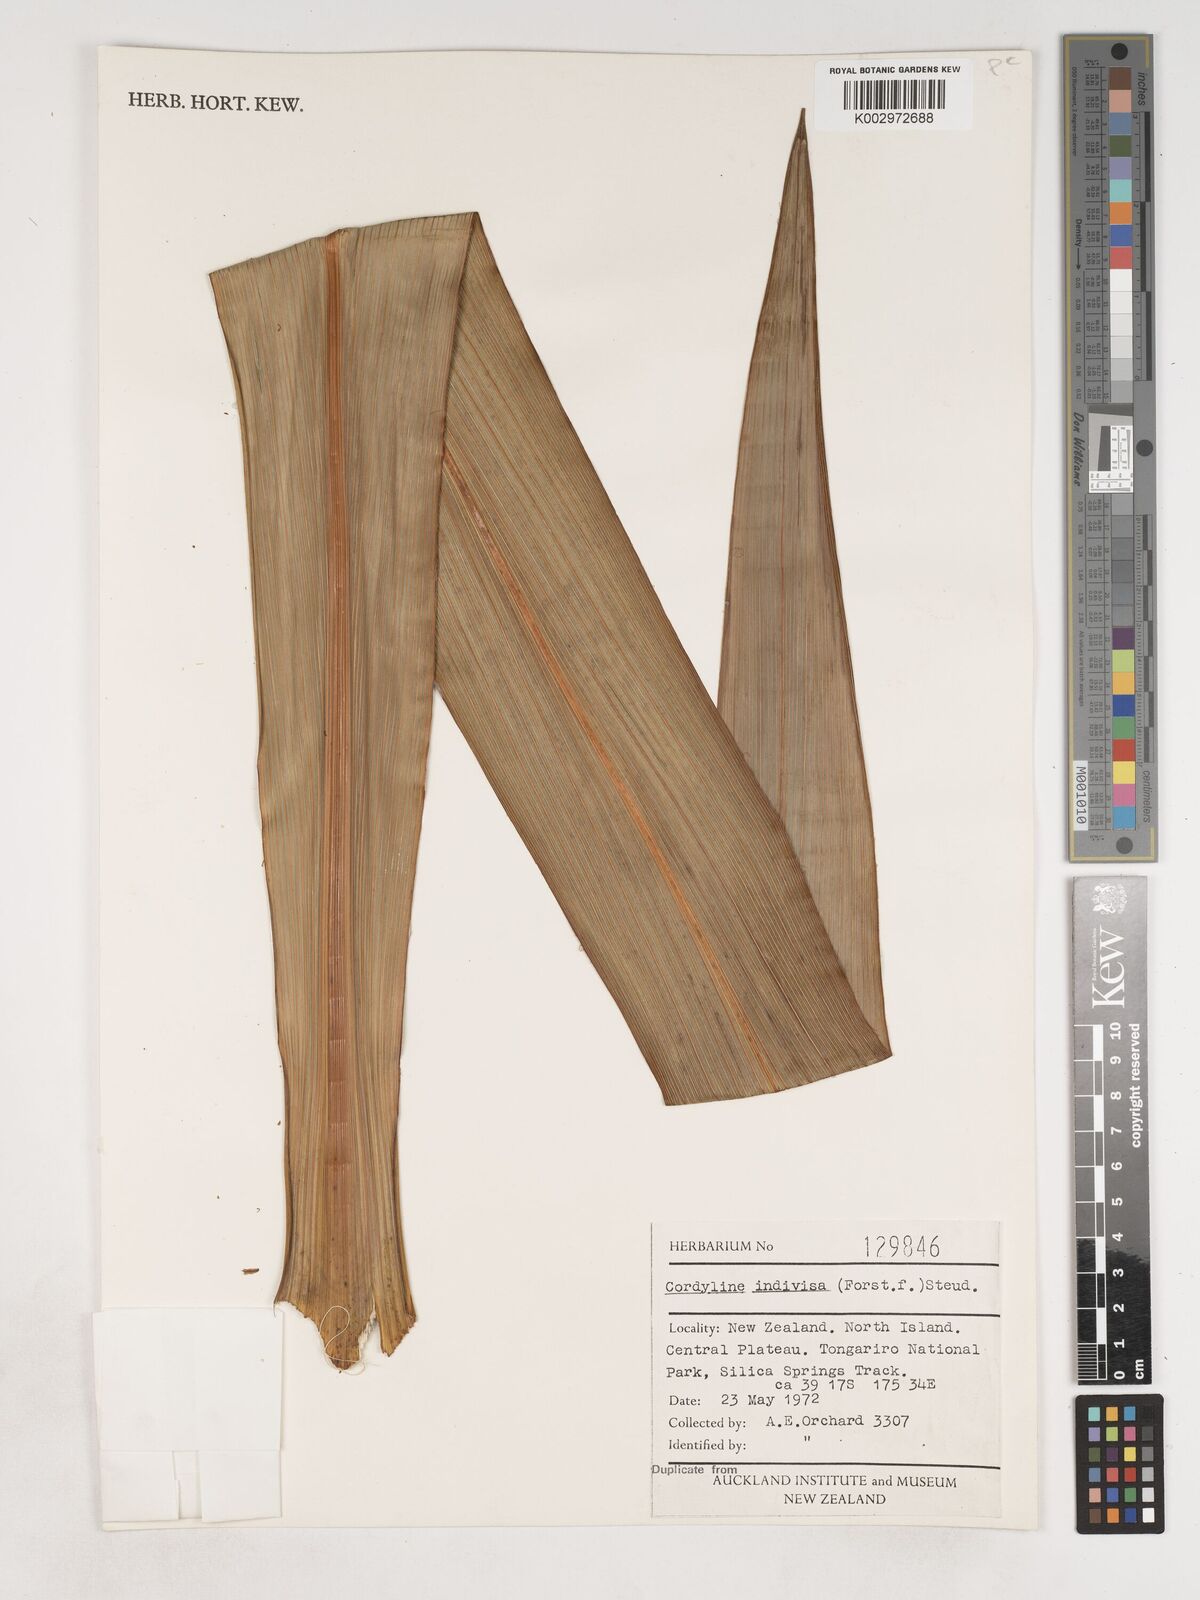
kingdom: Plantae
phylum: Tracheophyta
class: Liliopsida
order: Asparagales
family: Asparagaceae
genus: Cordyline
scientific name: Cordyline
